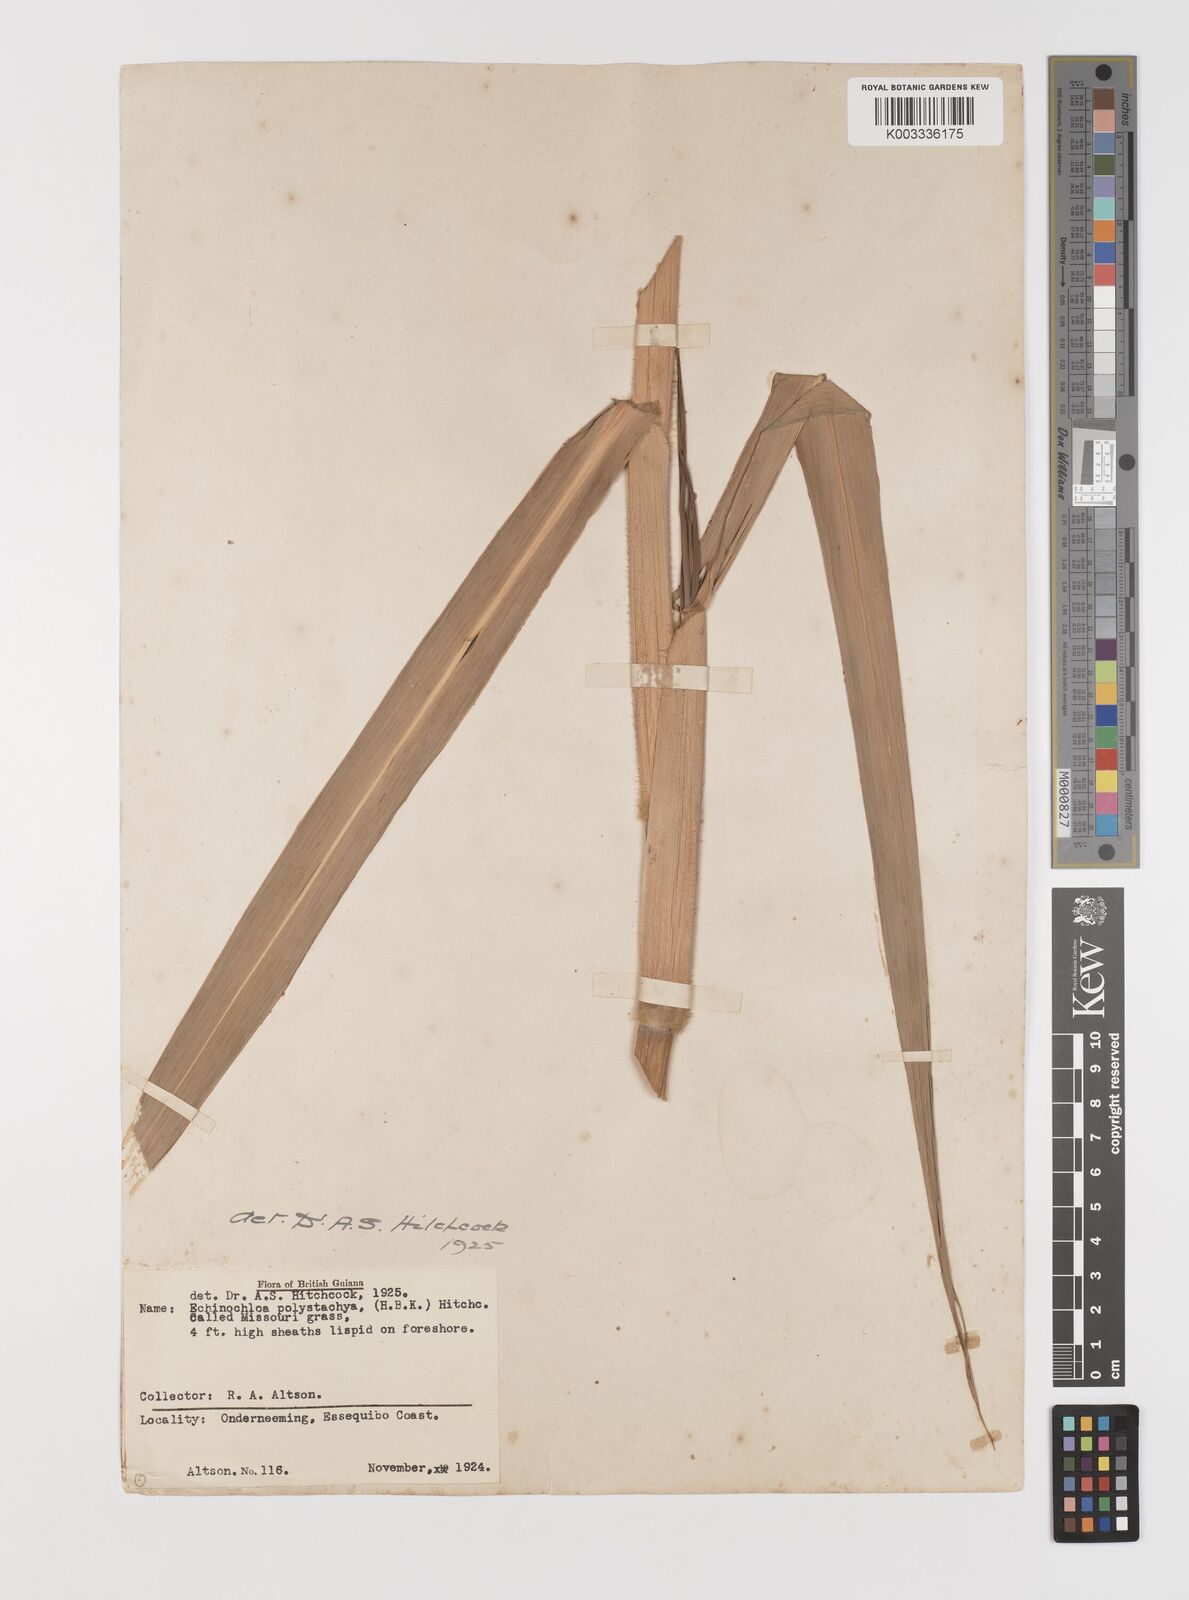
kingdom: Plantae
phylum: Tracheophyta
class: Liliopsida
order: Poales
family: Poaceae
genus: Pseudechinolaena
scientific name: Pseudechinolaena polystachya
